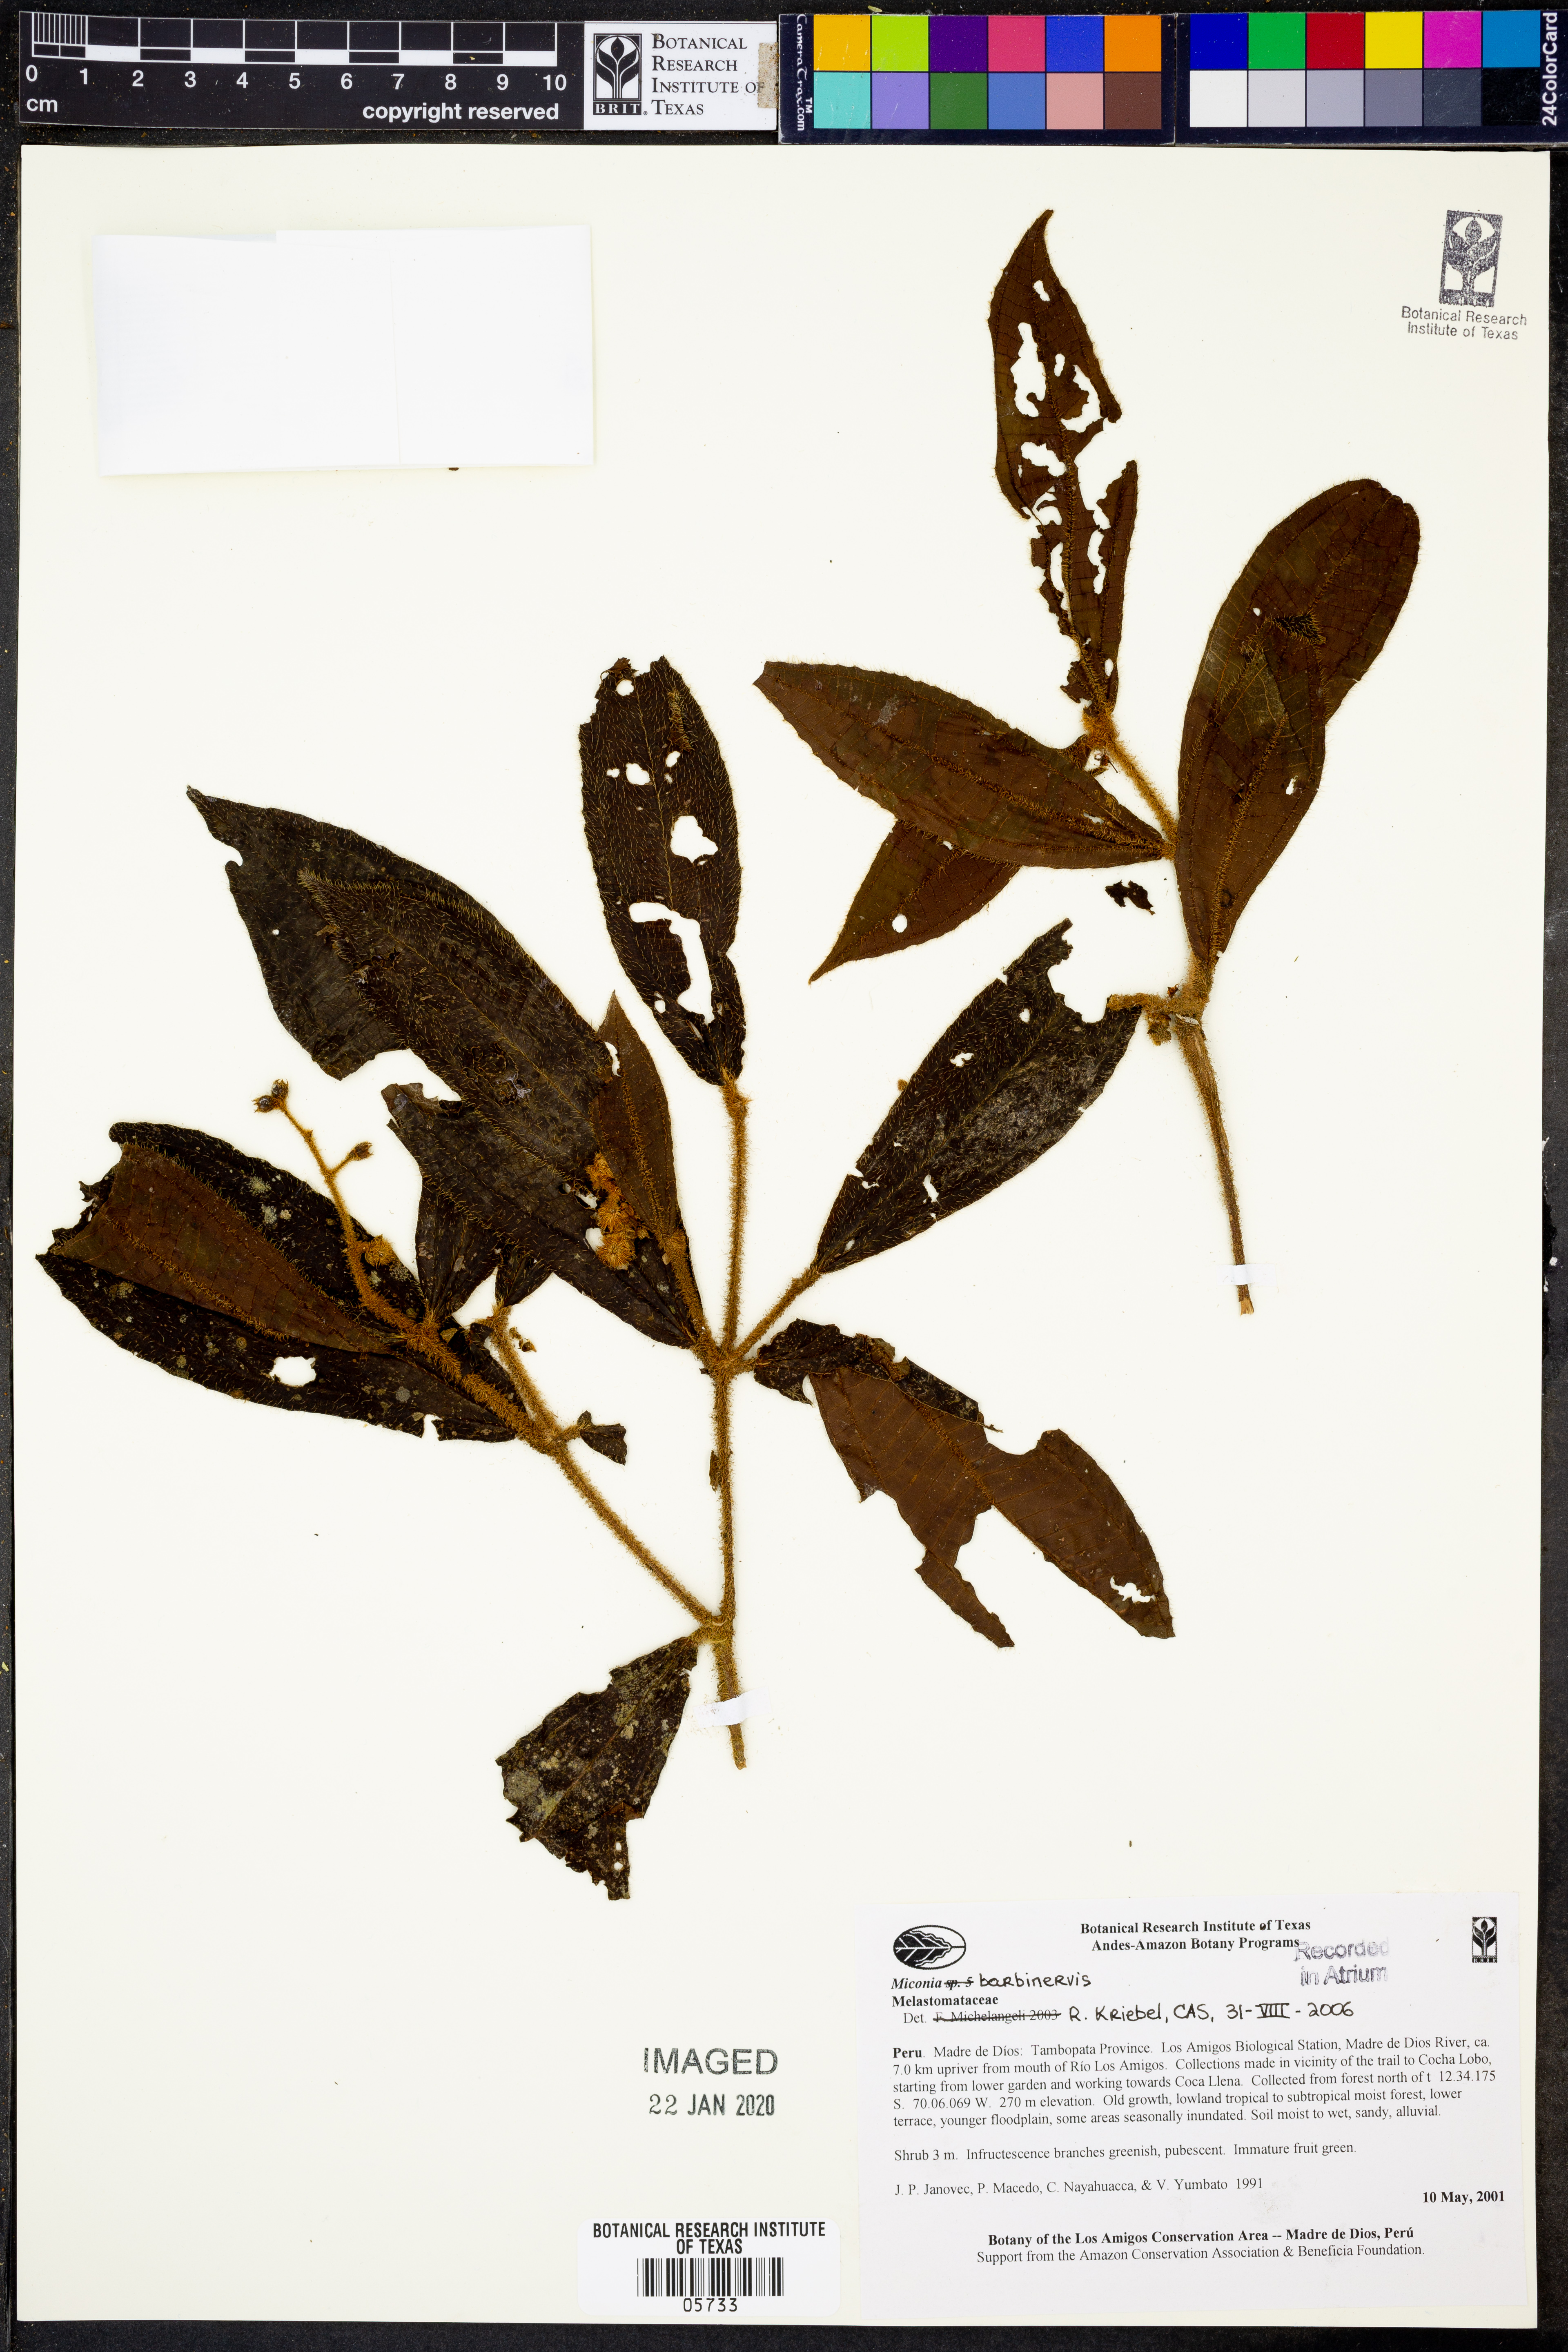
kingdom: Plantae
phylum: Tracheophyta
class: Magnoliopsida
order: Myrtales
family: Melastomataceae
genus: Miconia
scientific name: Miconia barbinervis
